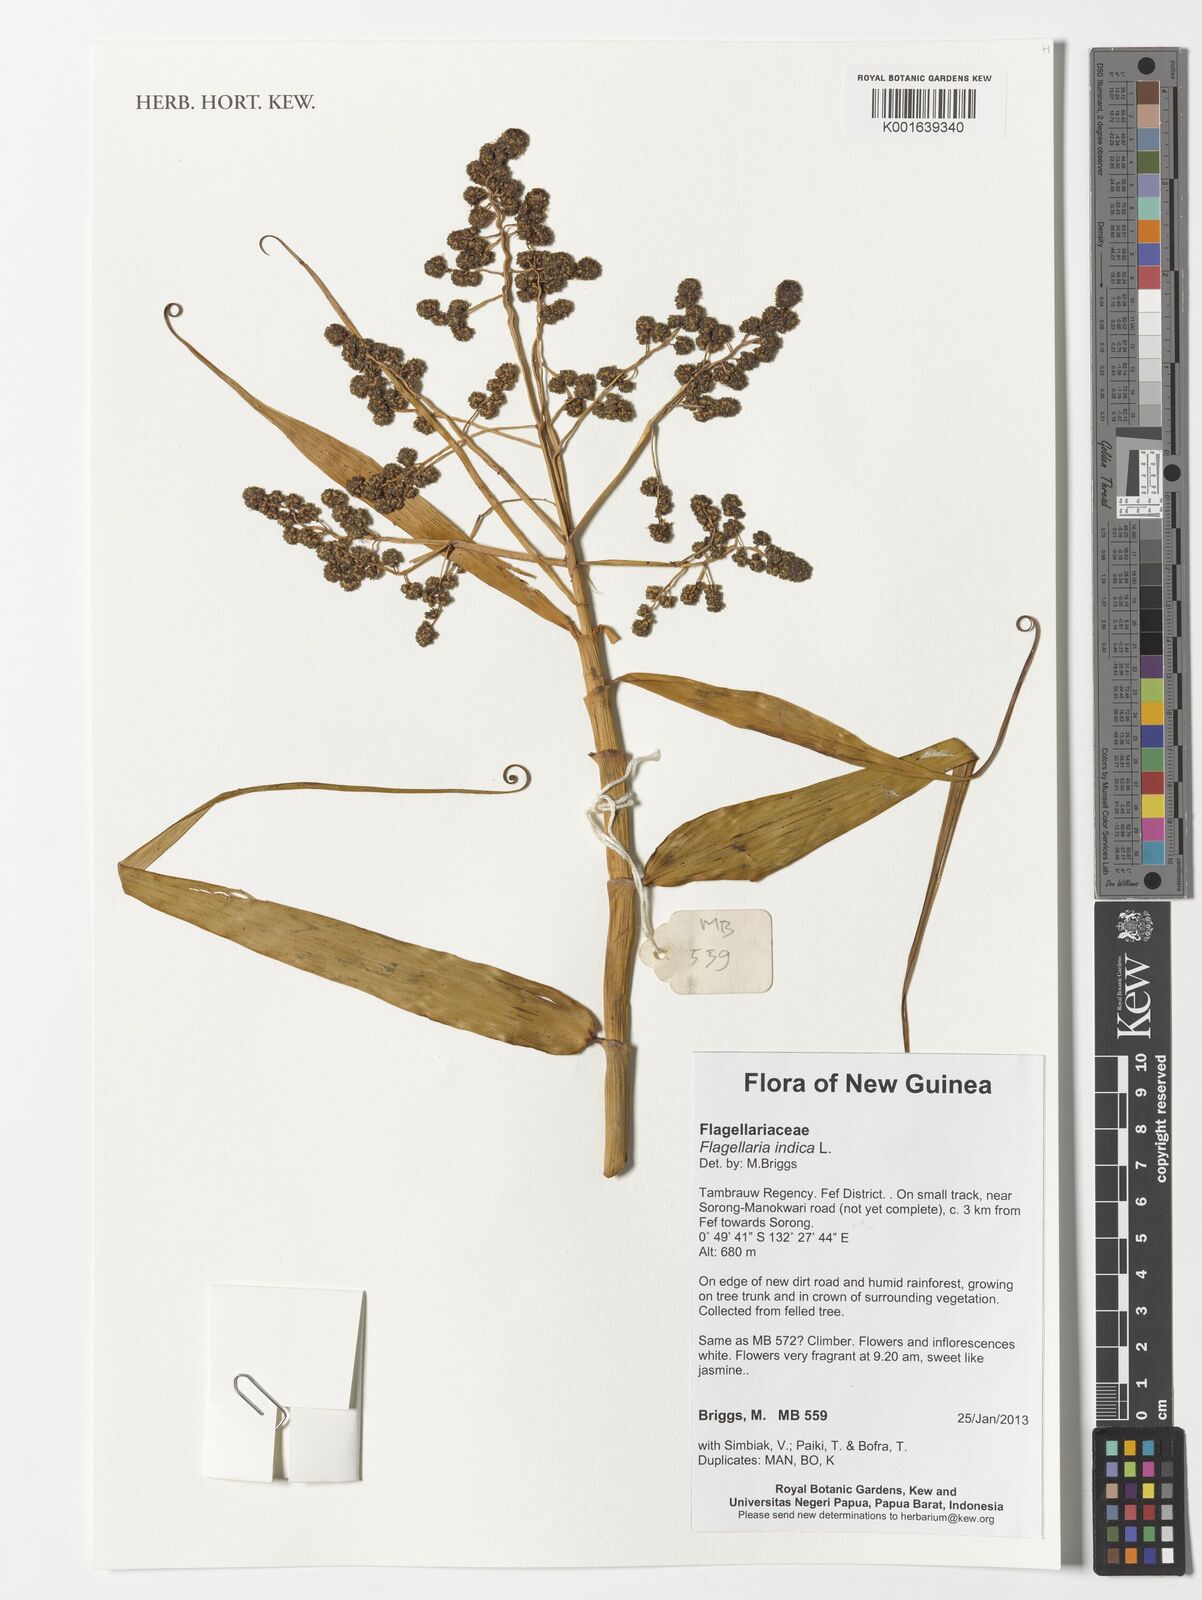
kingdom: Plantae
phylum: Tracheophyta
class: Liliopsida
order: Poales
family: Flagellariaceae
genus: Flagellaria
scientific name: Flagellaria indica
